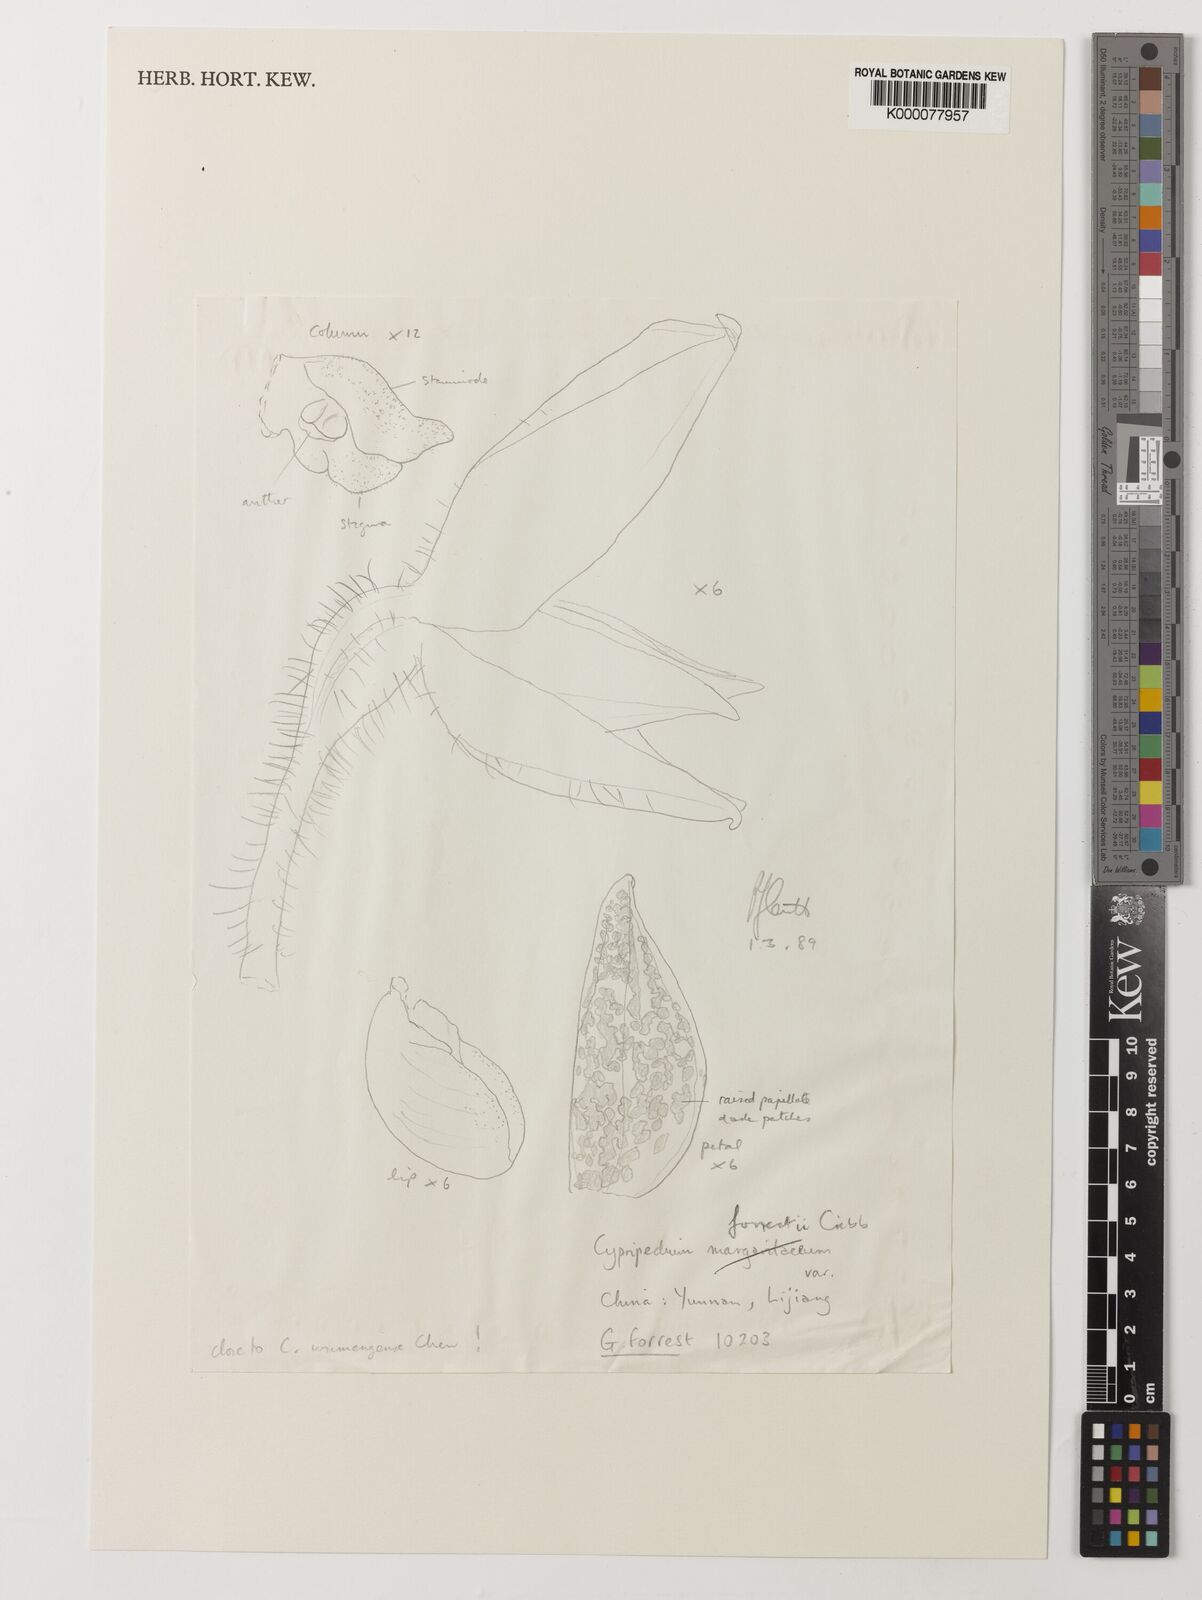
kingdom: Plantae
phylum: Tracheophyta
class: Liliopsida
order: Asparagales
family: Orchidaceae
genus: Cypripedium
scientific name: Cypripedium forrestii
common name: Forrest's cypripedium
